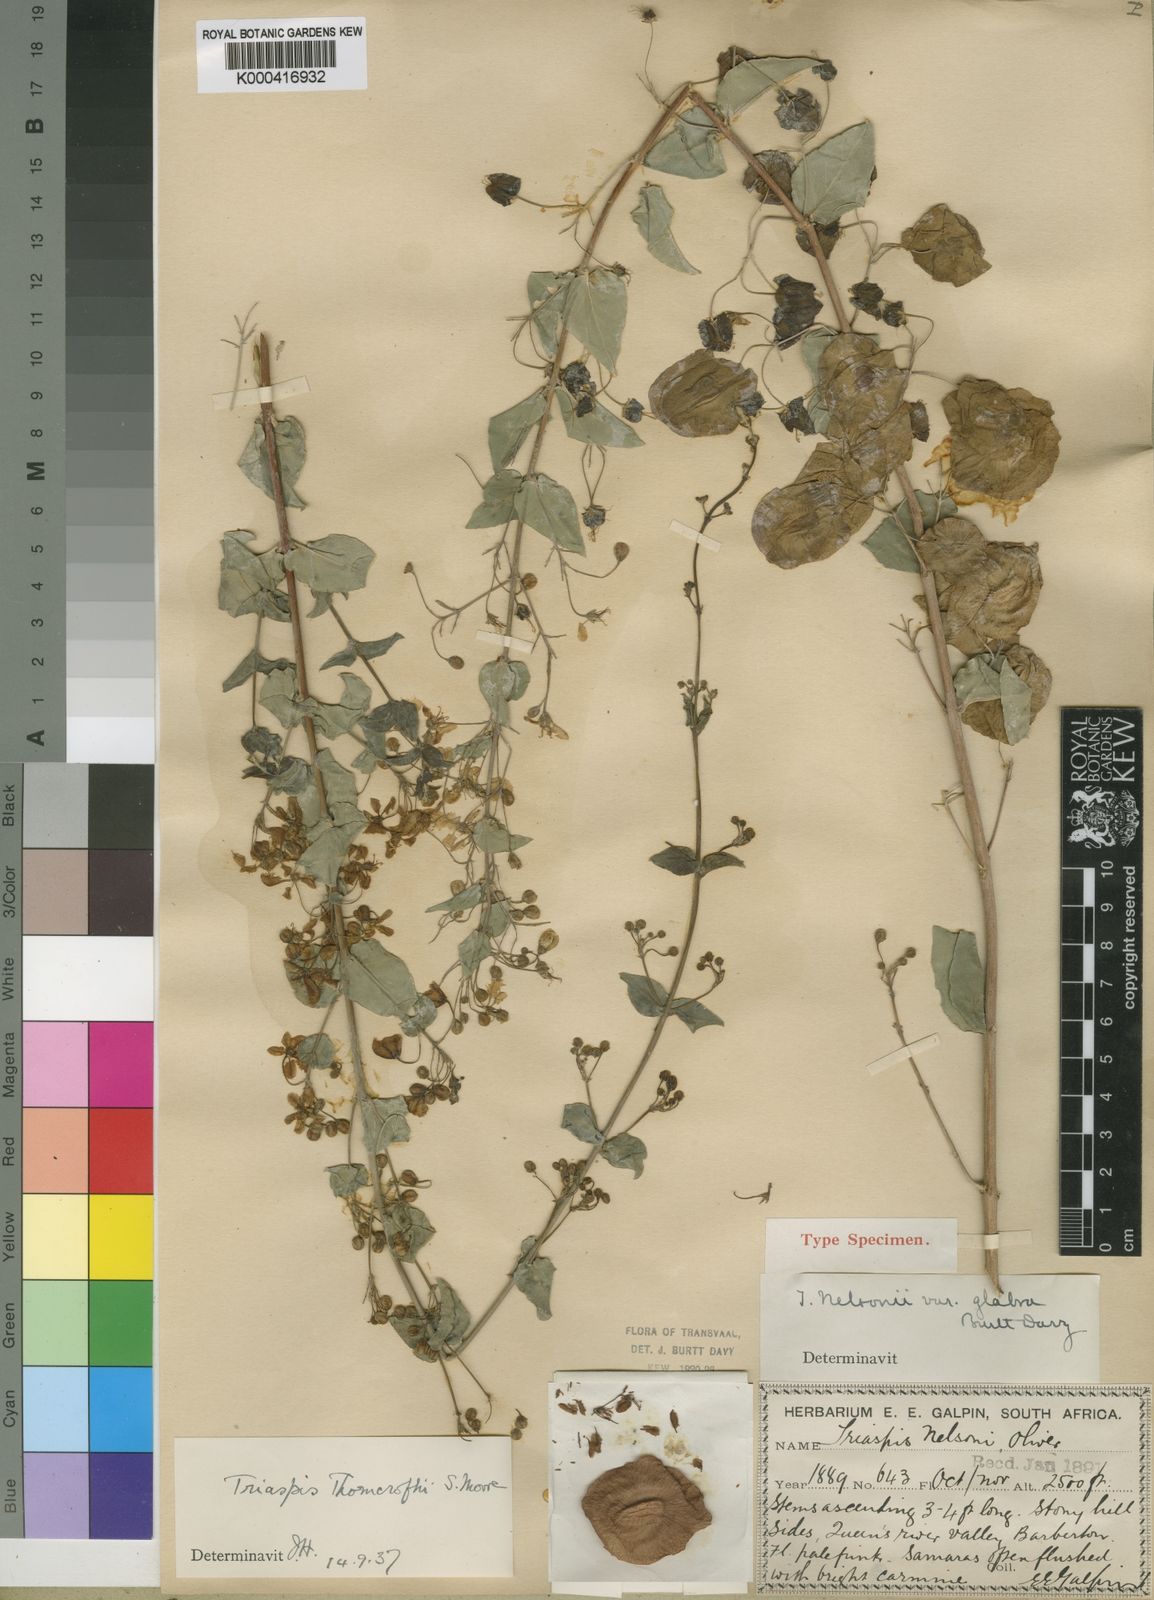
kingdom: Plantae
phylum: Tracheophyta
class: Magnoliopsida
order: Malpighiales
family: Malpighiaceae
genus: Triaspis
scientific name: Triaspis hypericoides
